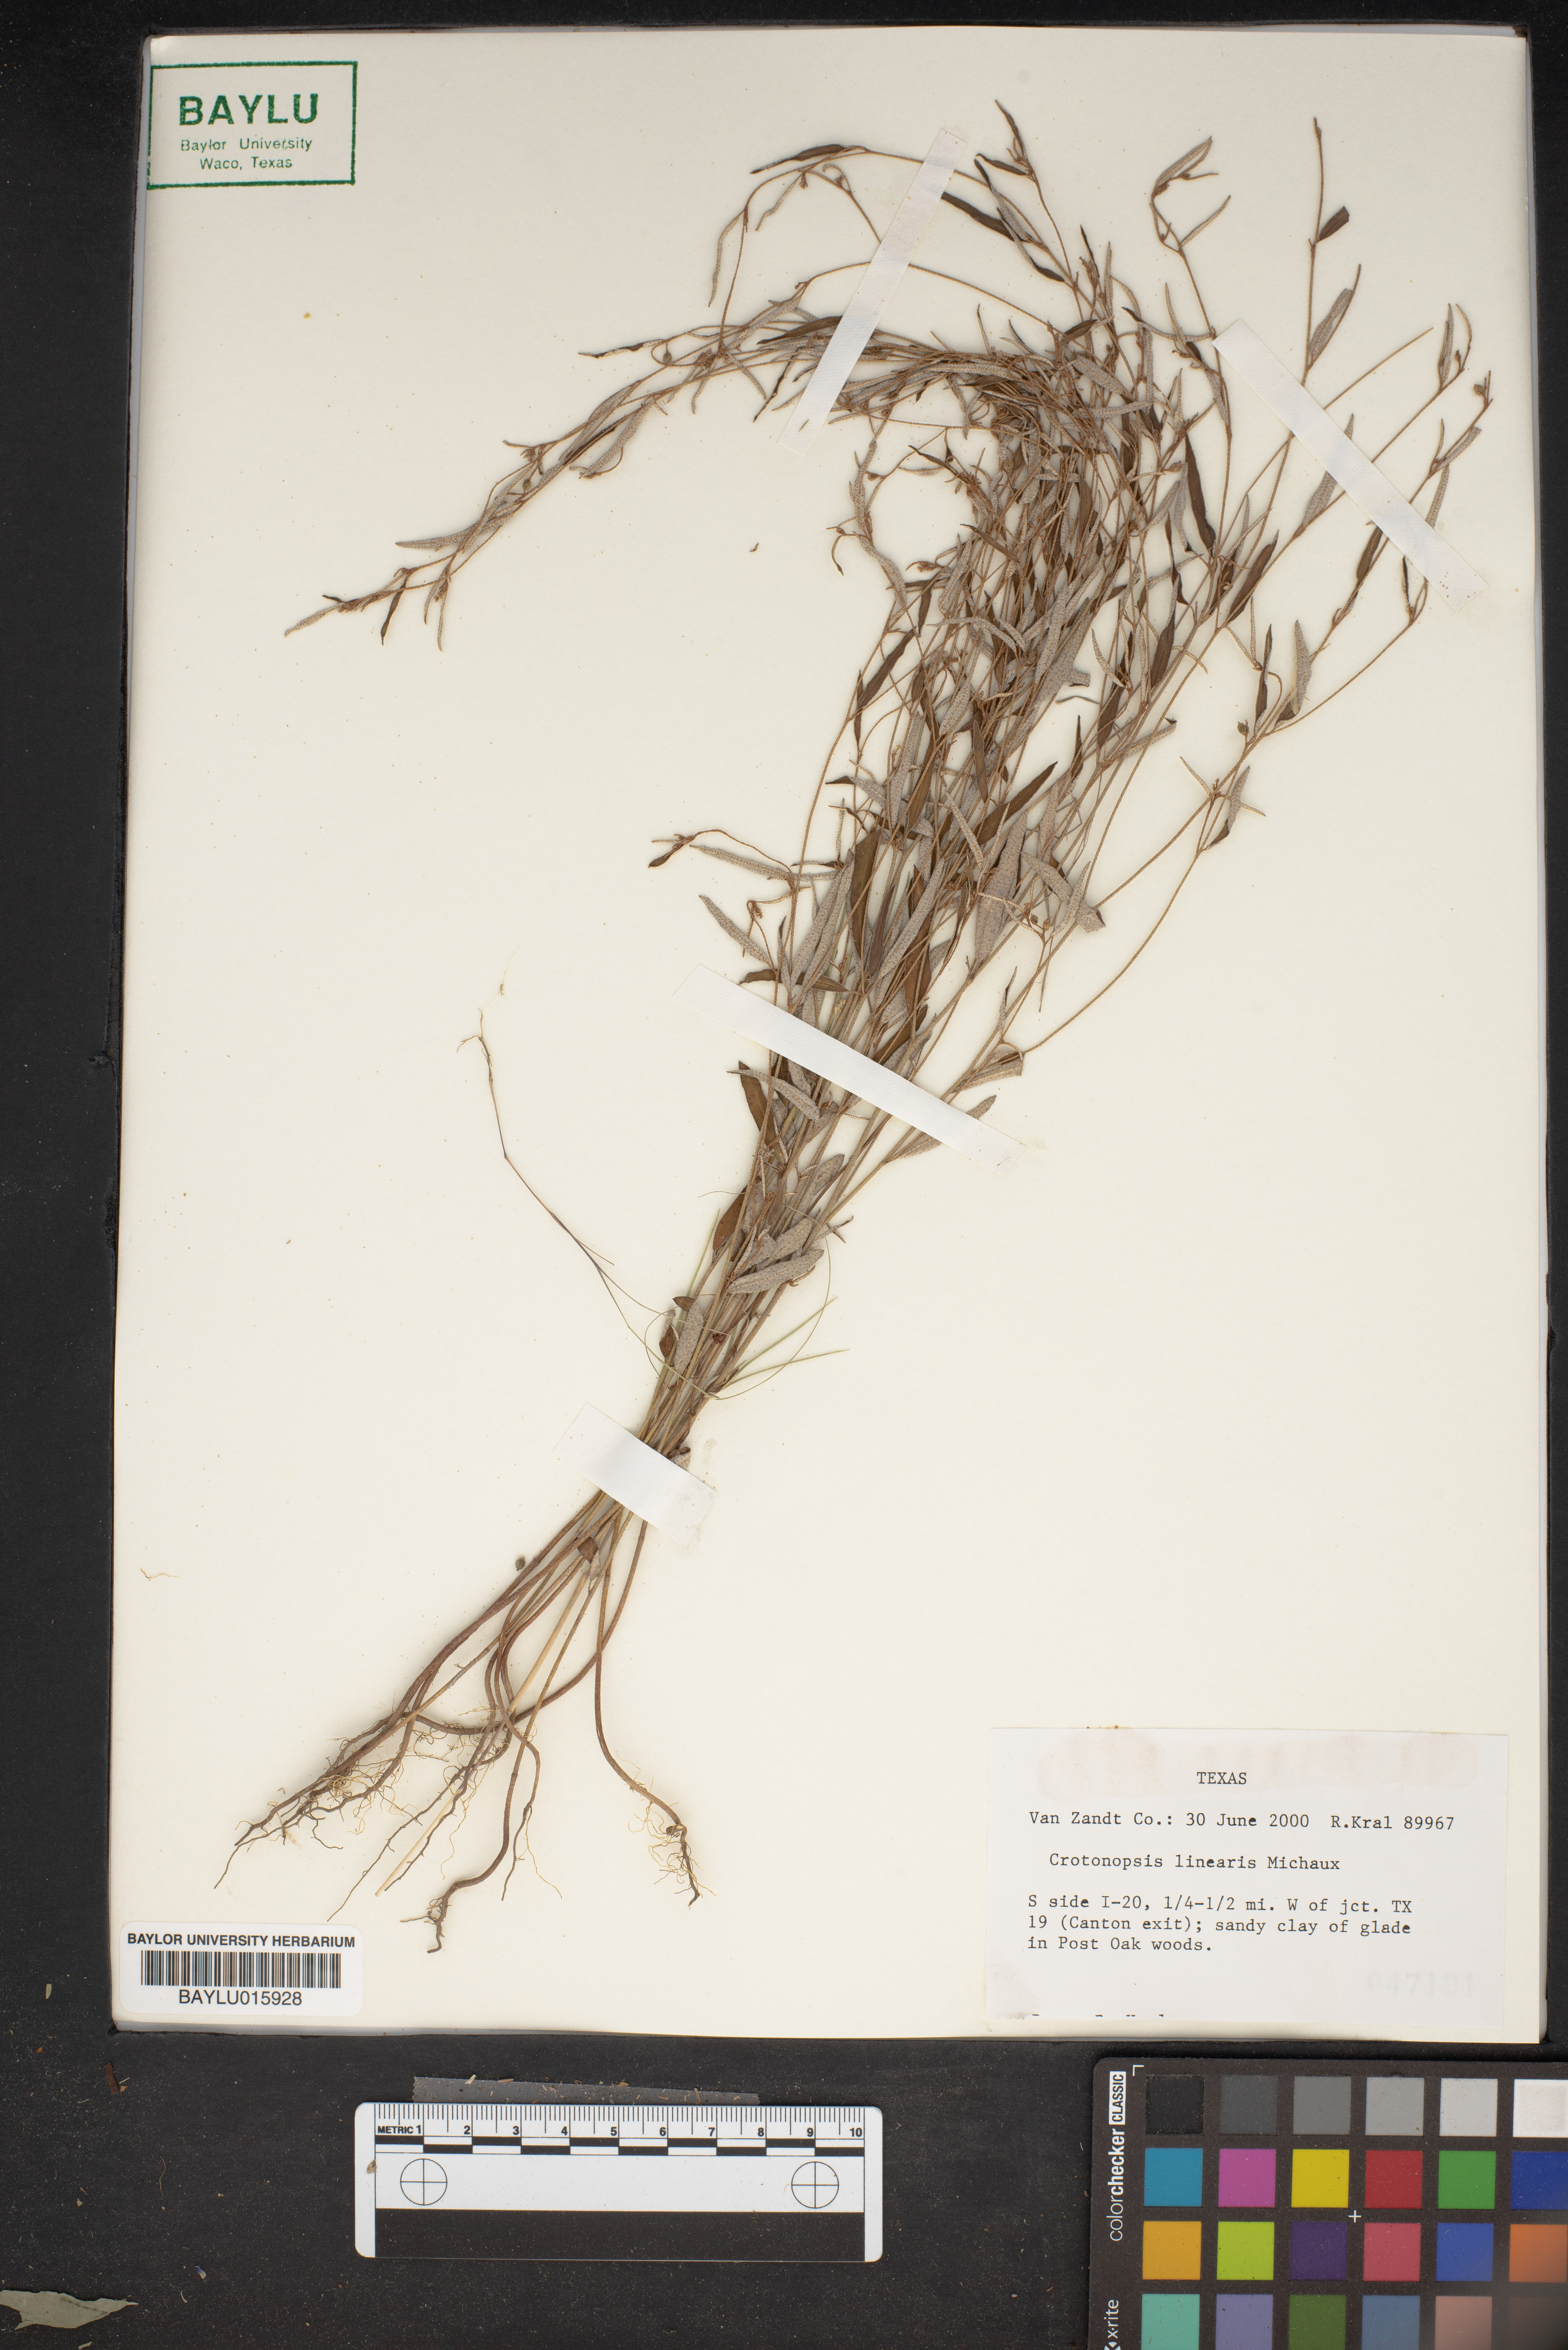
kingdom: Plantae
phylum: Tracheophyta
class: Magnoliopsida
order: Malpighiales
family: Euphorbiaceae
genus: Croton
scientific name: Croton michauxii
